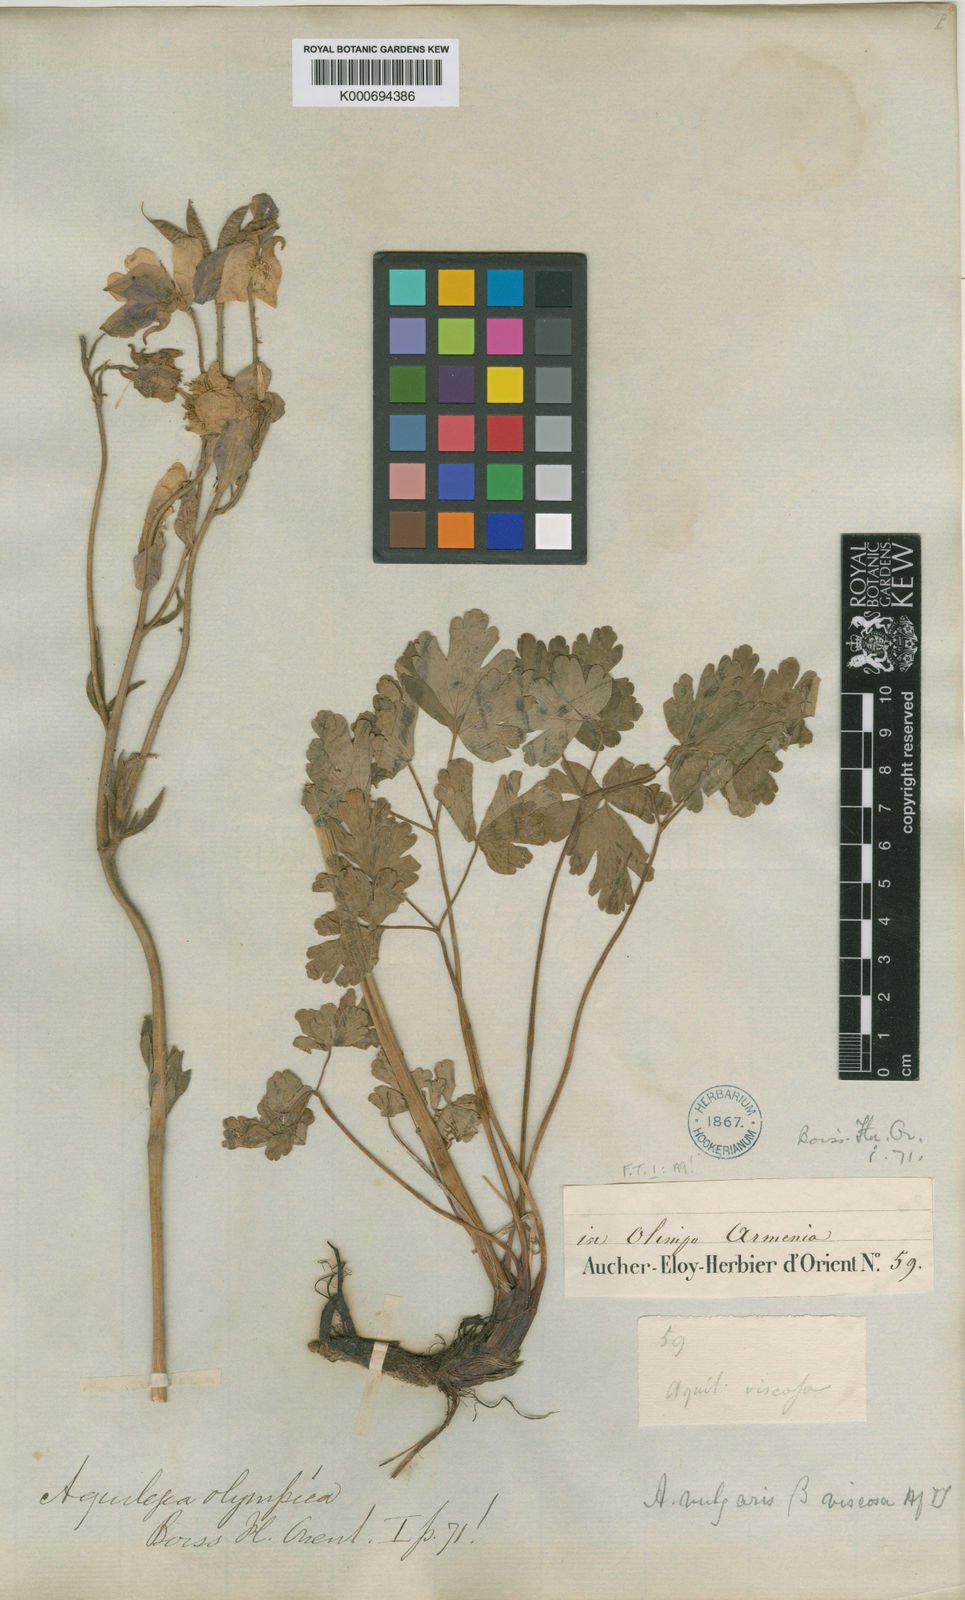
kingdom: Plantae
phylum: Tracheophyta
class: Magnoliopsida
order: Ranunculales
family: Ranunculaceae
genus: Aquilegia
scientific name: Aquilegia olympica
